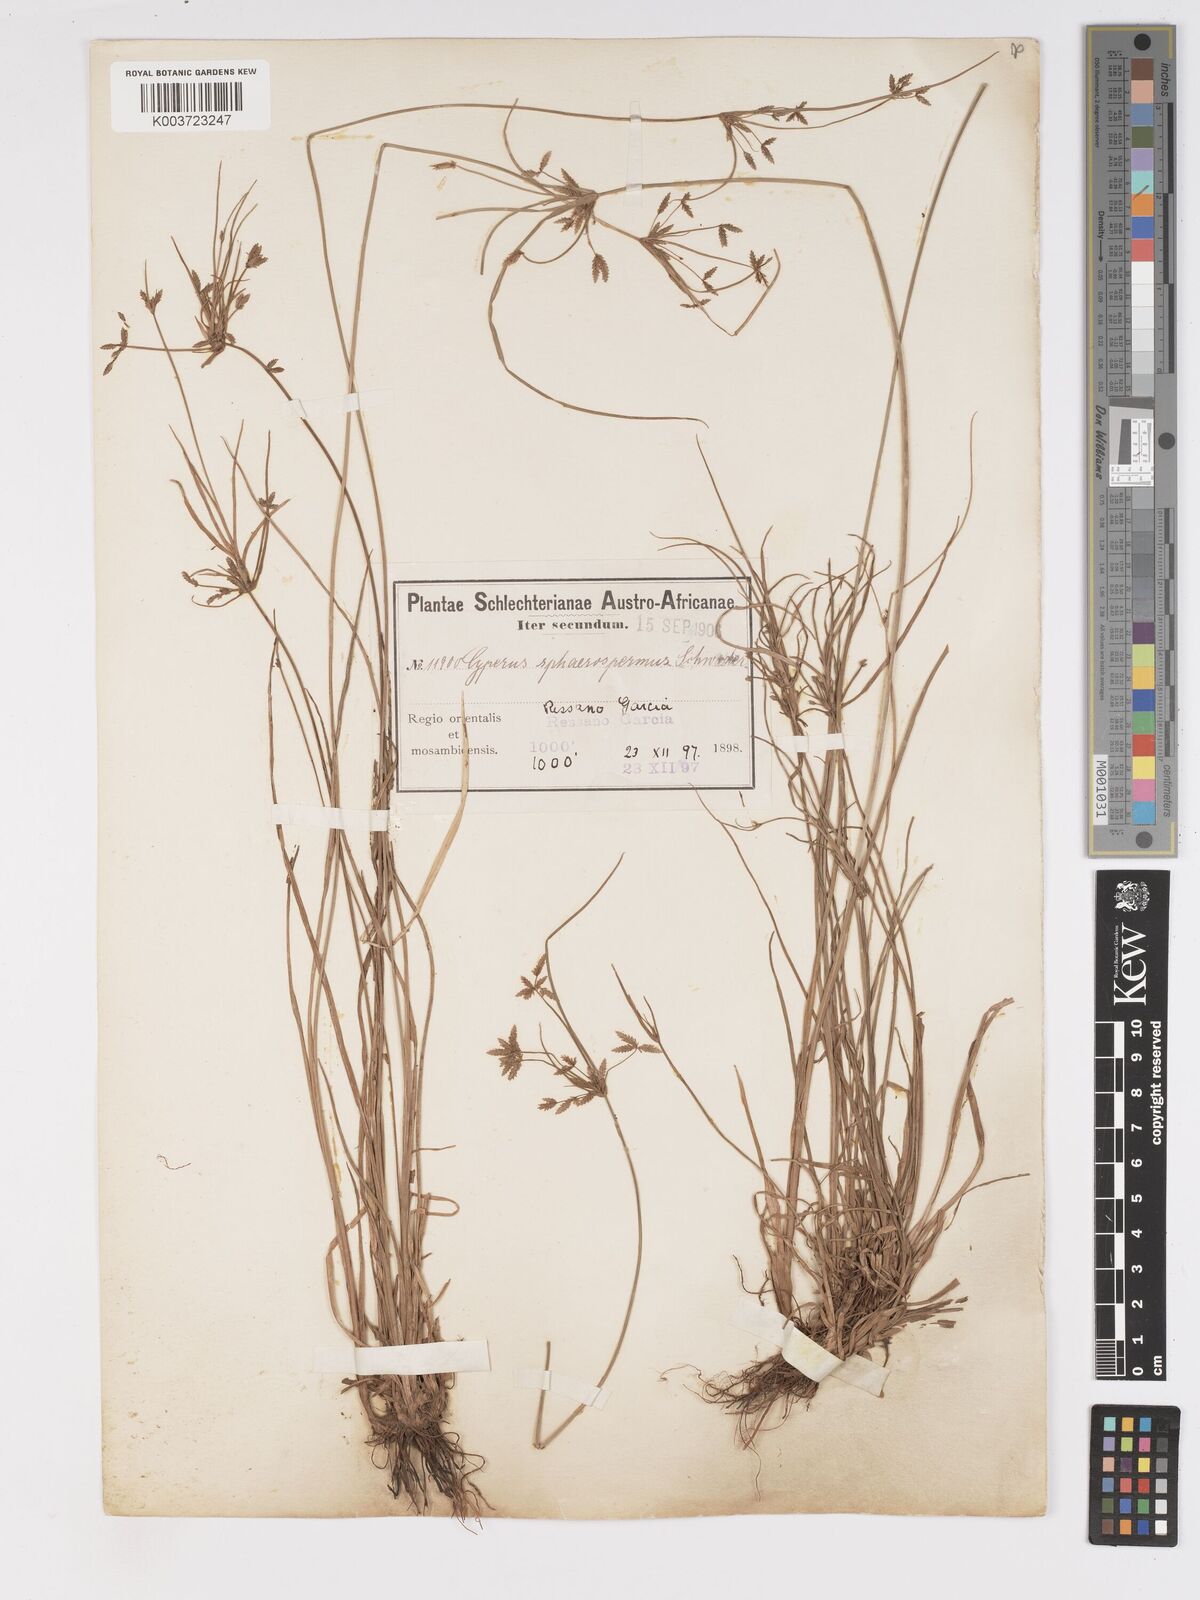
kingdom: Plantae
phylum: Tracheophyta
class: Liliopsida
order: Poales
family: Cyperaceae
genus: Cyperus
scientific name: Cyperus denudatus
